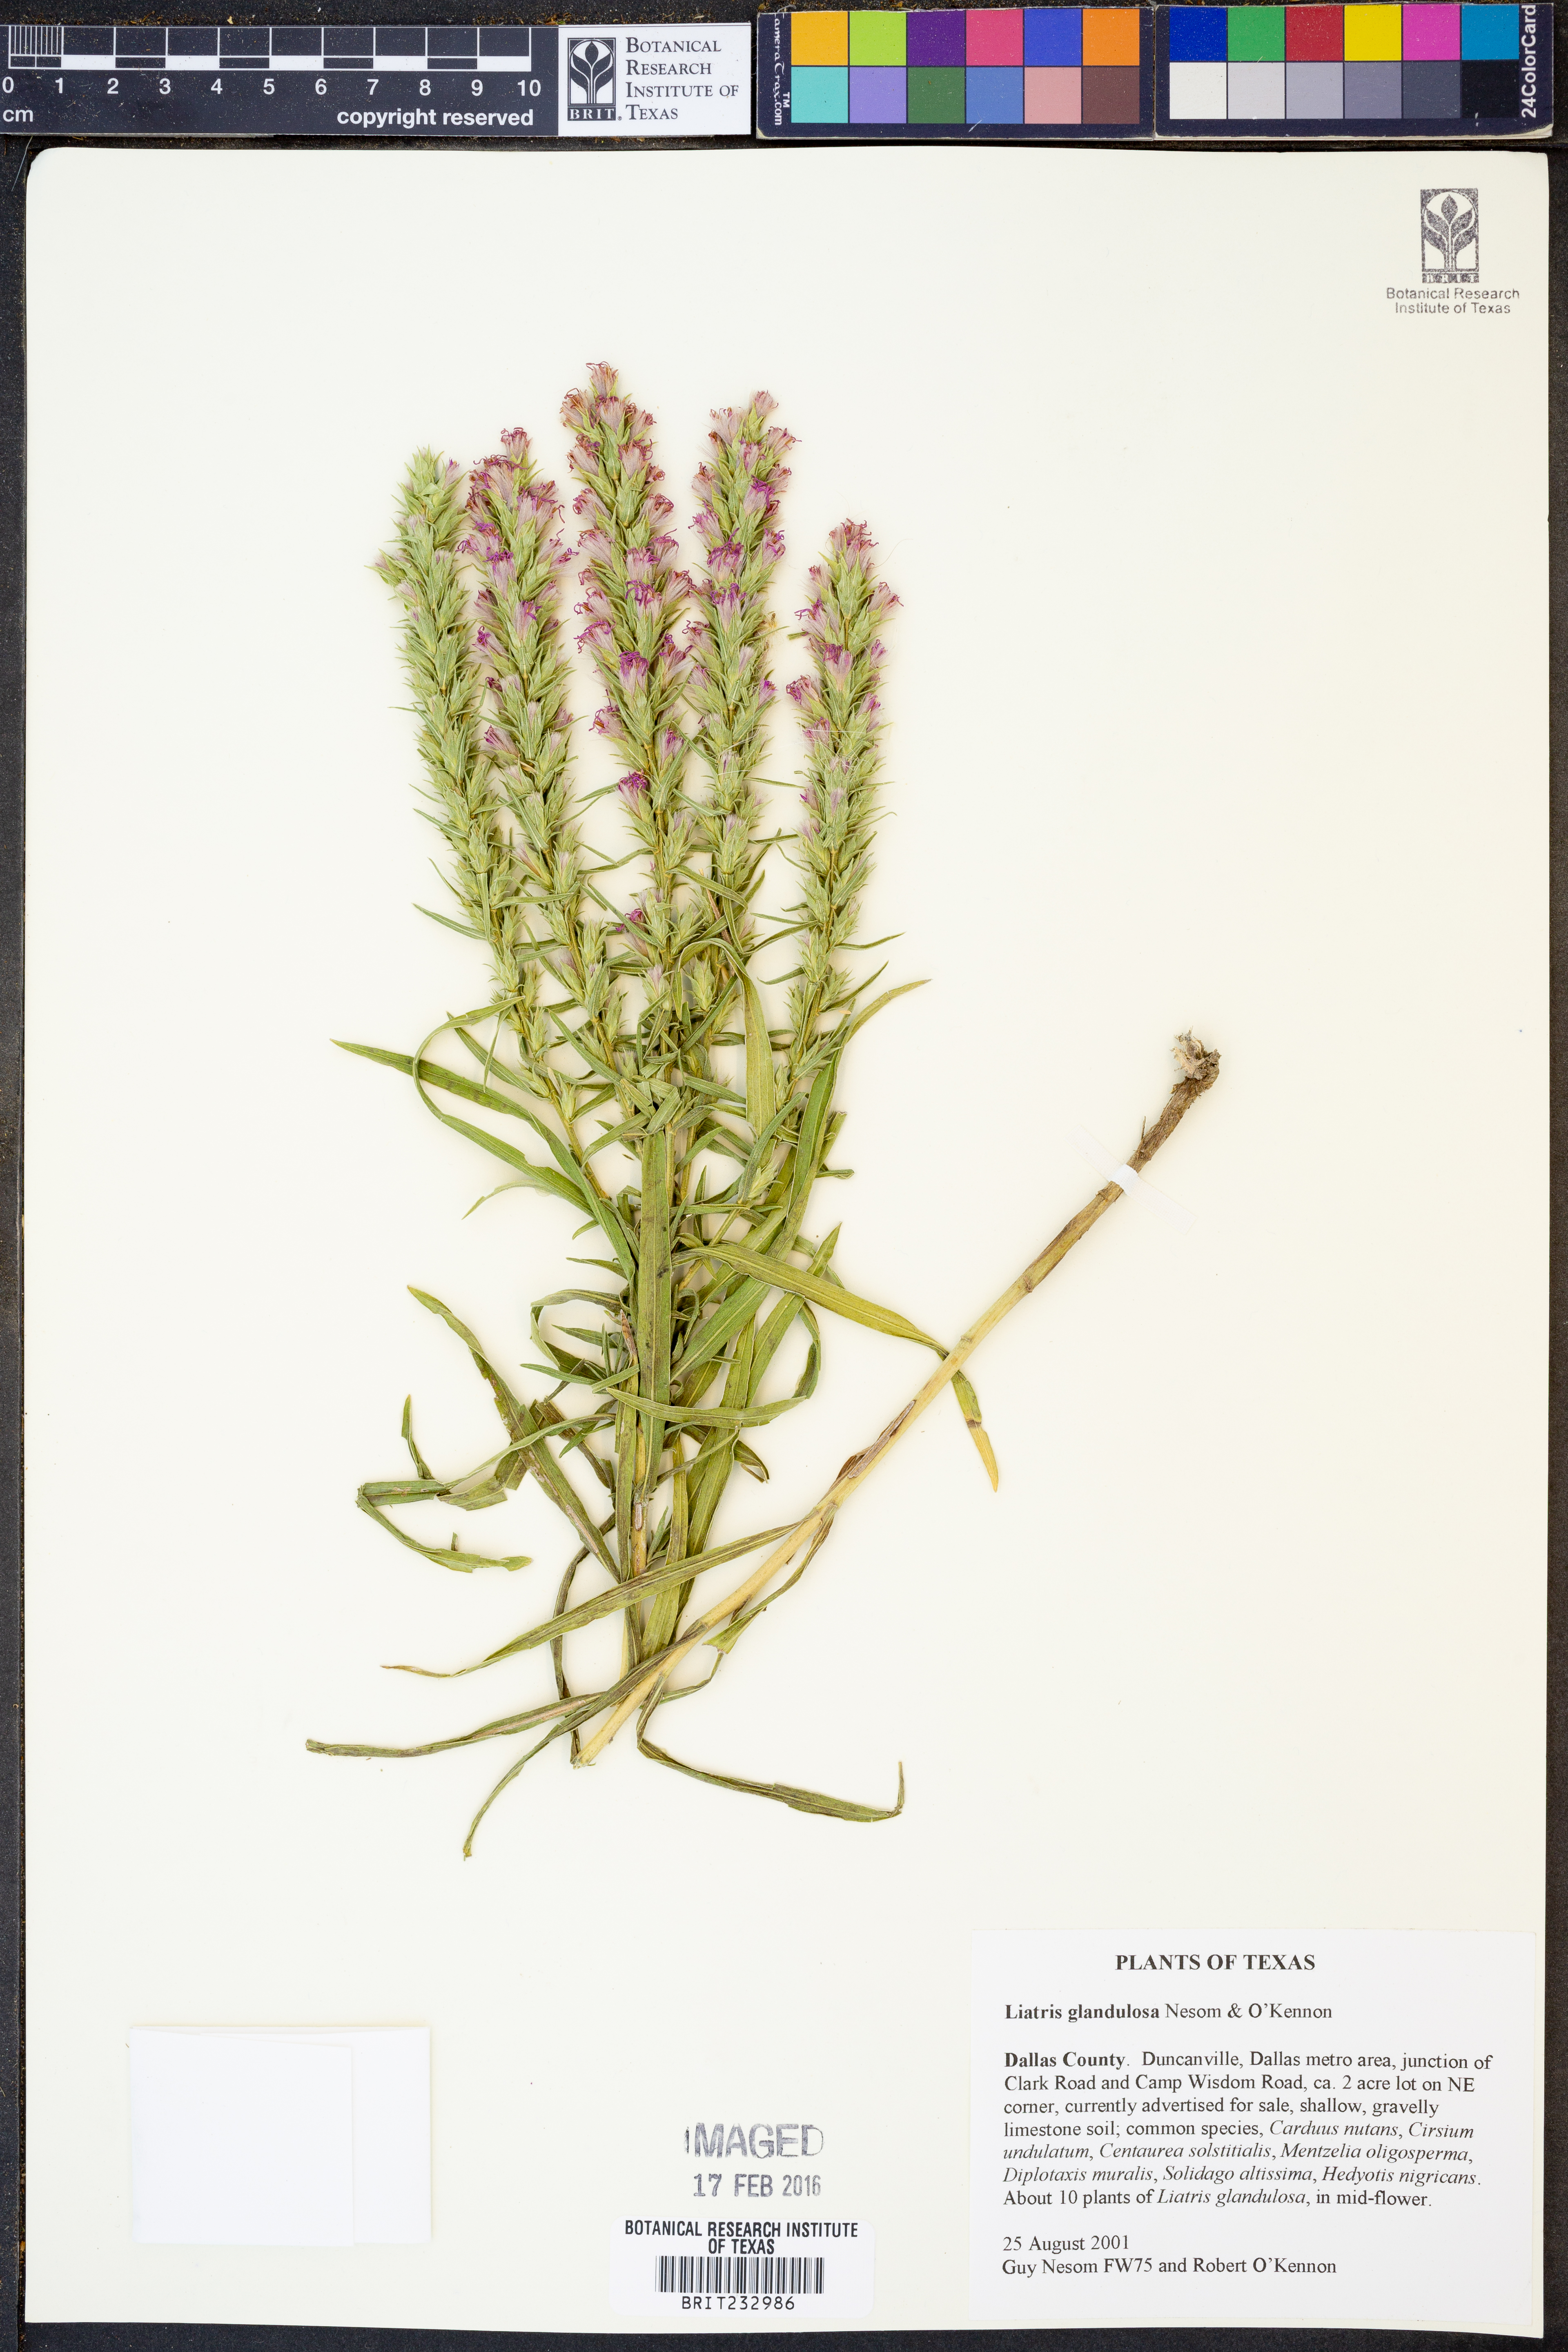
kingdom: Plantae
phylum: Tracheophyta
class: Magnoliopsida
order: Asterales
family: Asteraceae
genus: Liatris
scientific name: Liatris glandulosa
